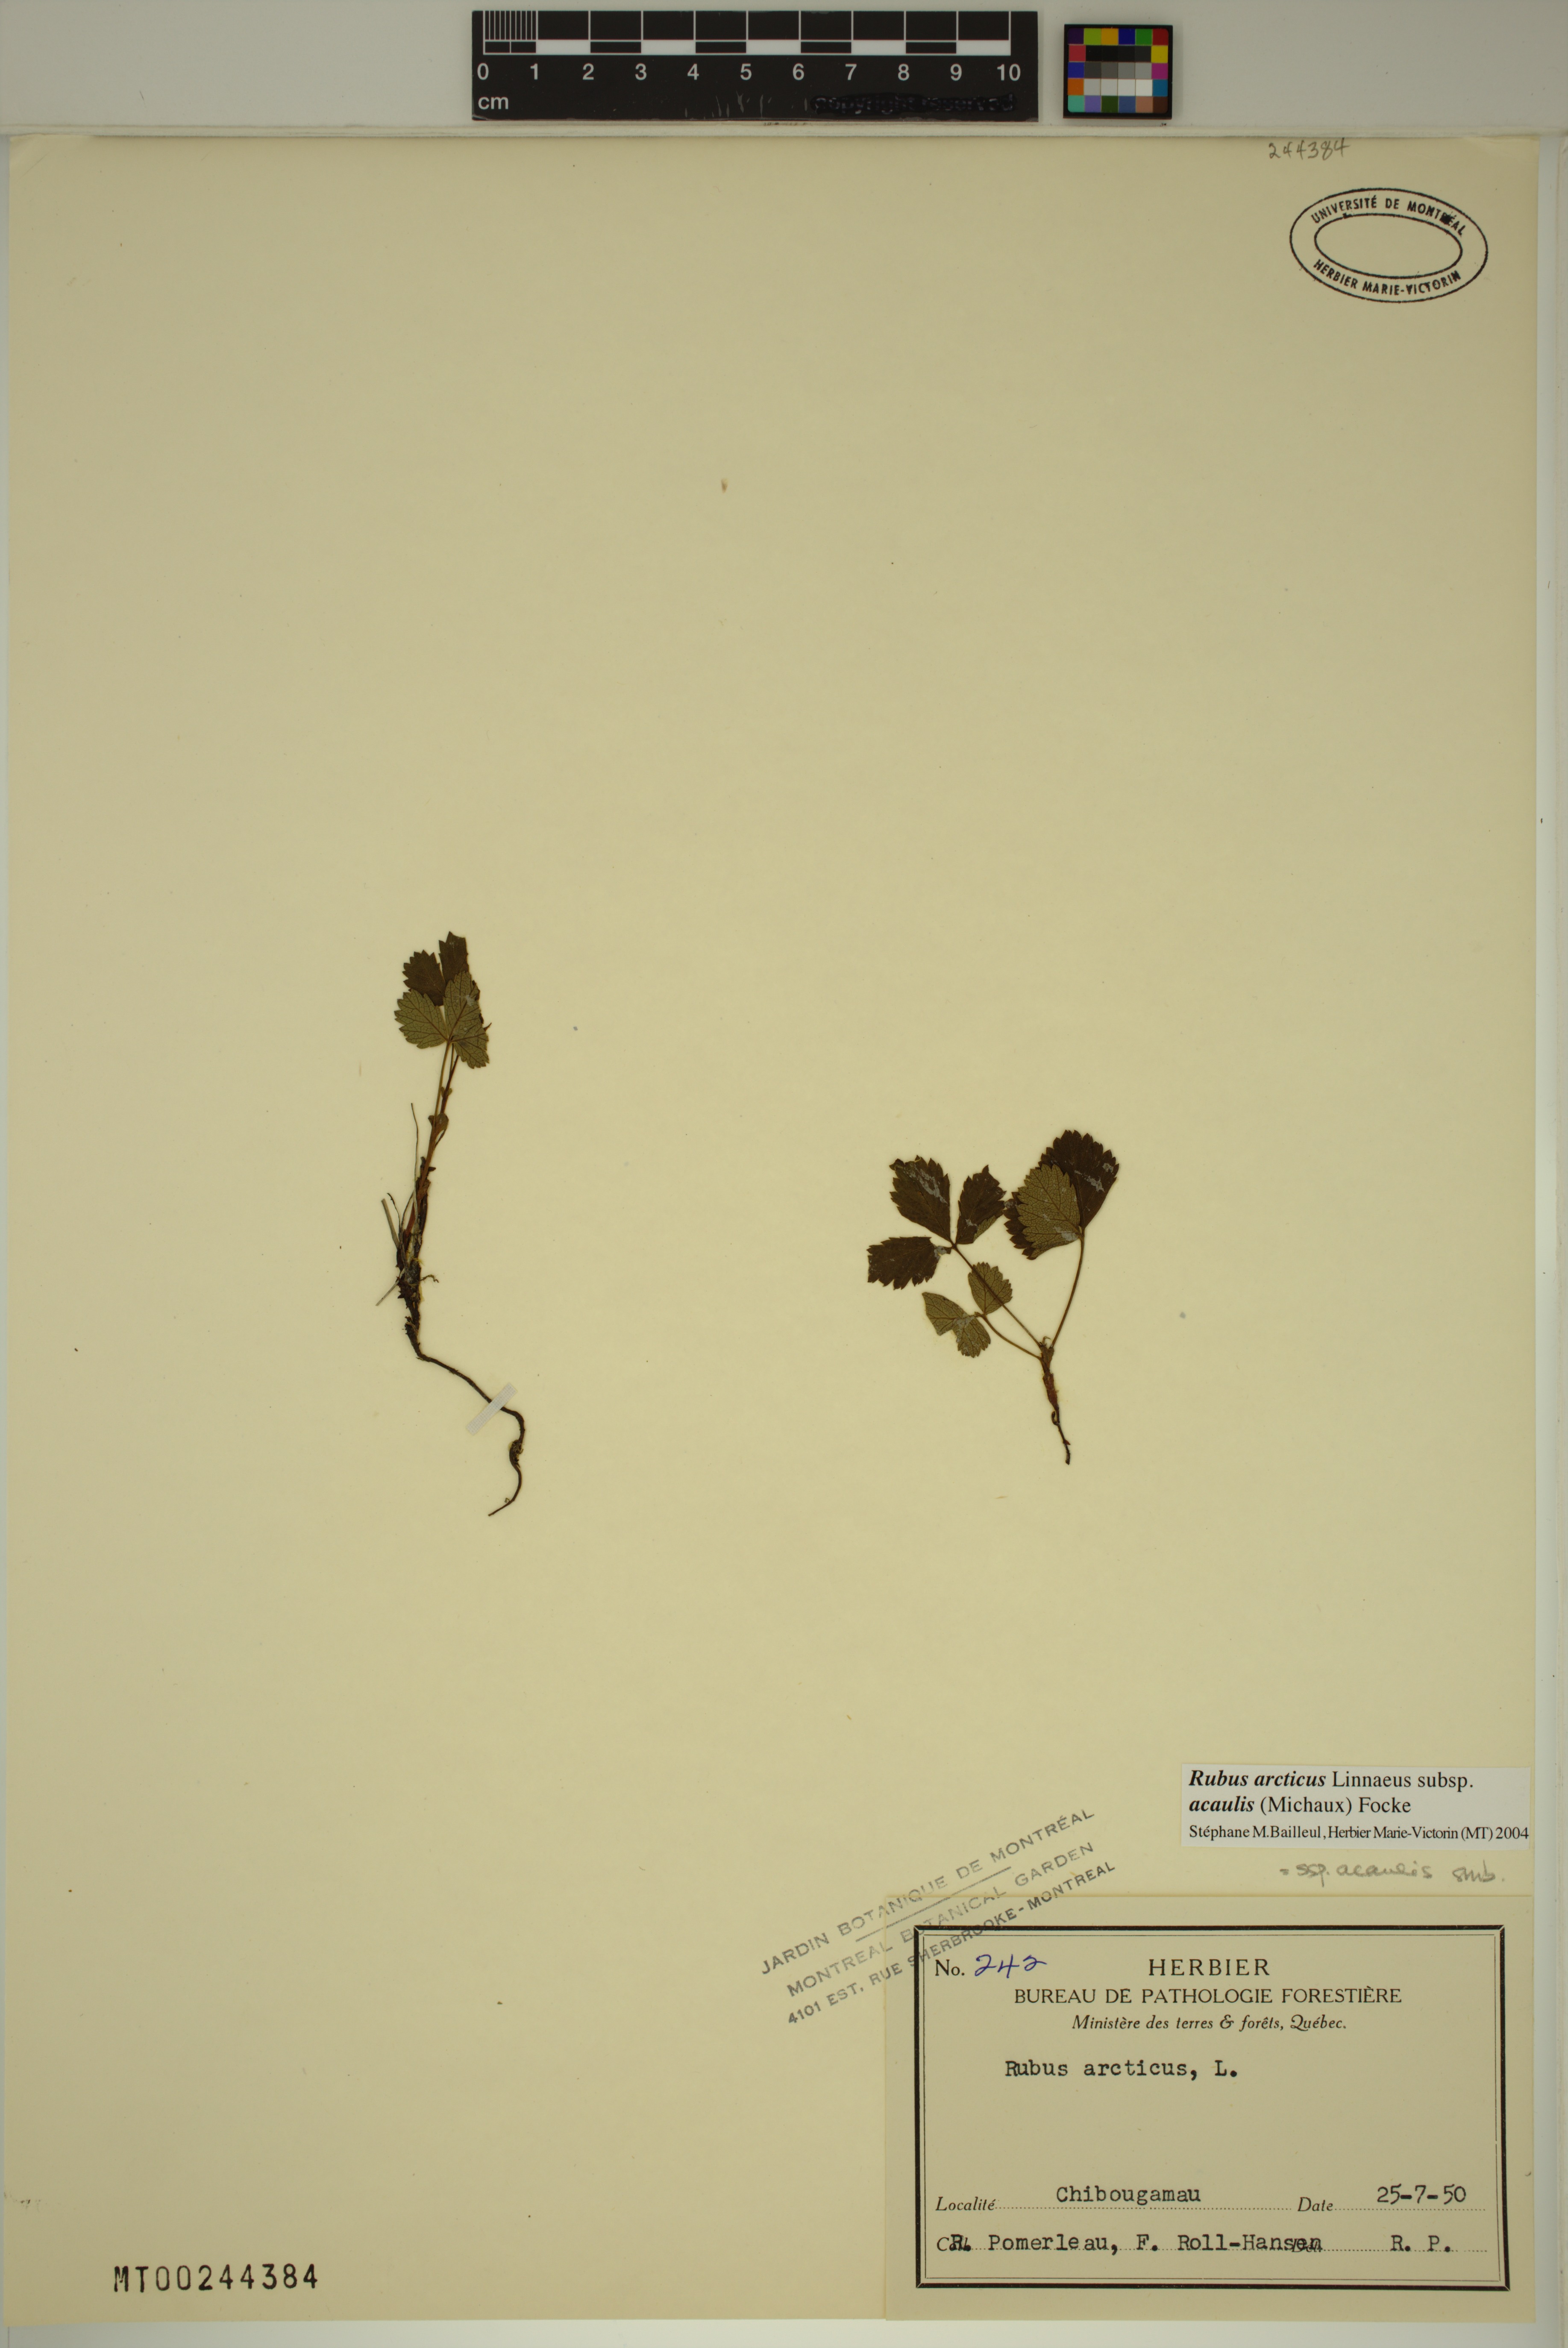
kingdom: Plantae
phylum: Tracheophyta
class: Magnoliopsida
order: Rosales
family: Rosaceae
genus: Rubus
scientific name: Rubus arcticus
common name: Arctic bramble
